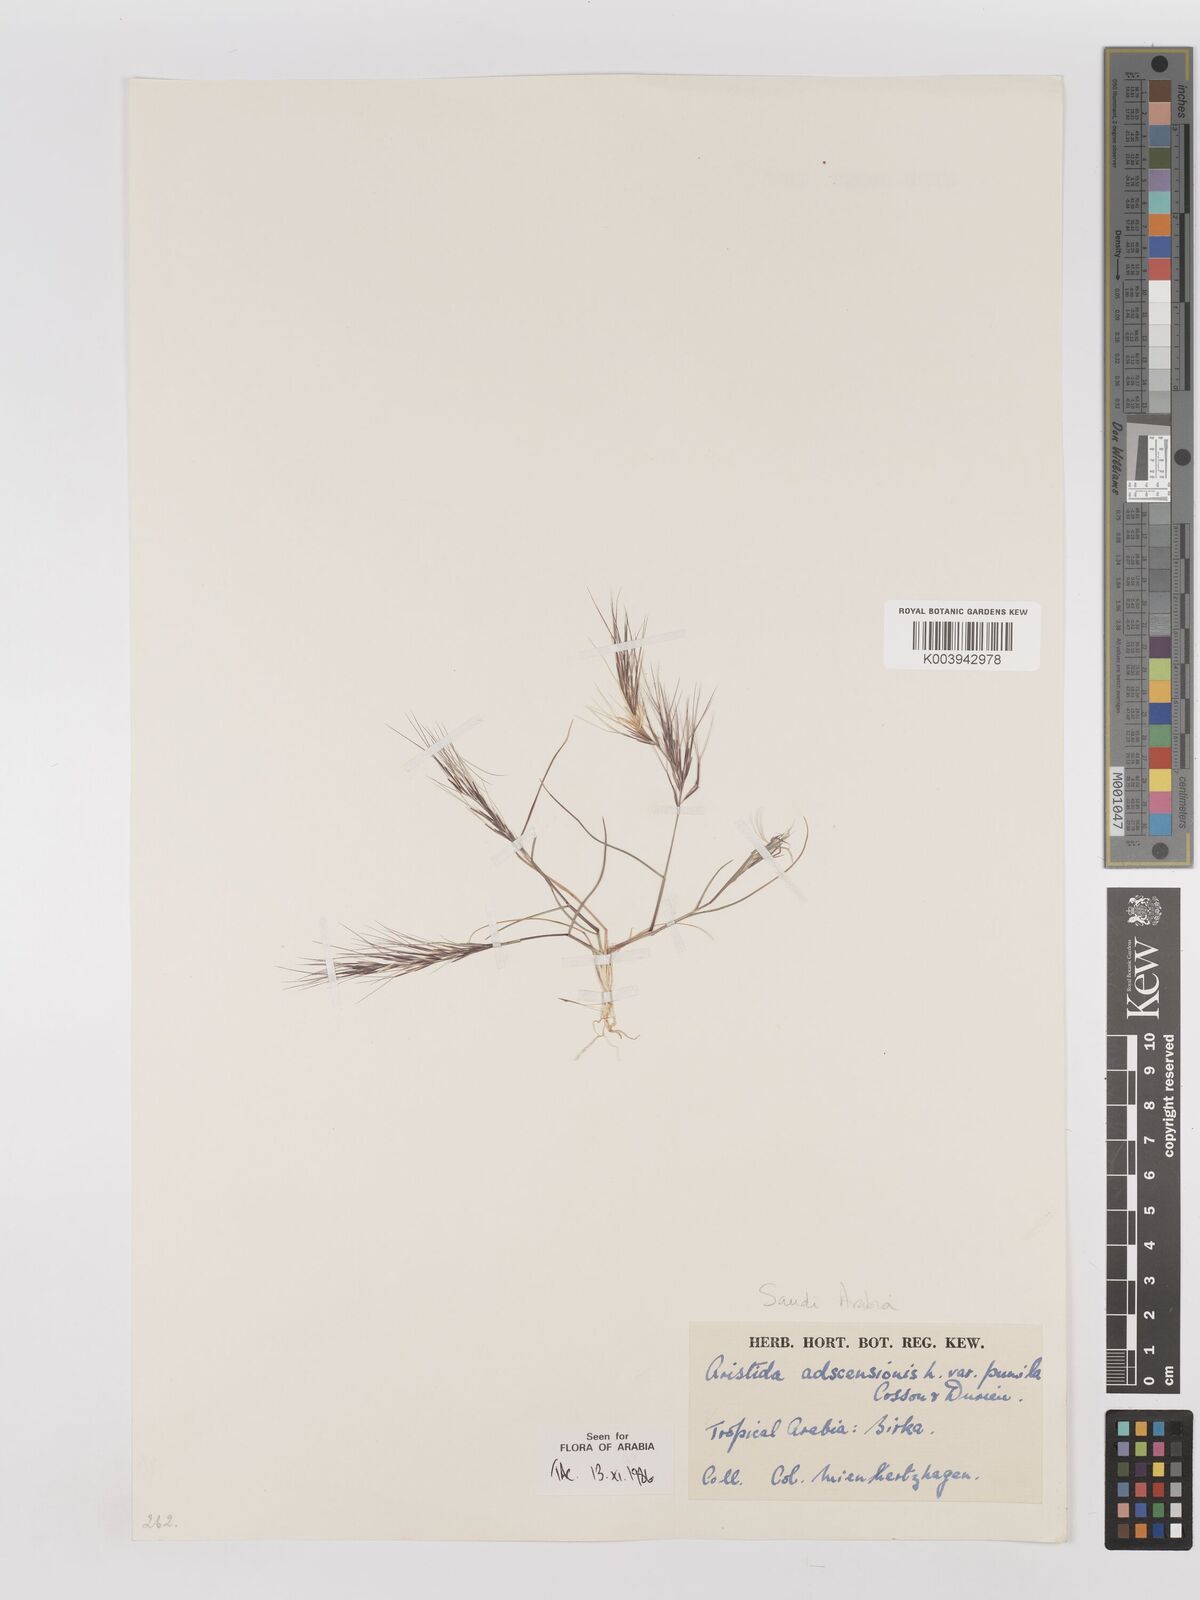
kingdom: Plantae
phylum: Tracheophyta
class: Liliopsida
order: Poales
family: Poaceae
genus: Aristida
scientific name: Aristida adscensionis
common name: Sixweeks threeawn
